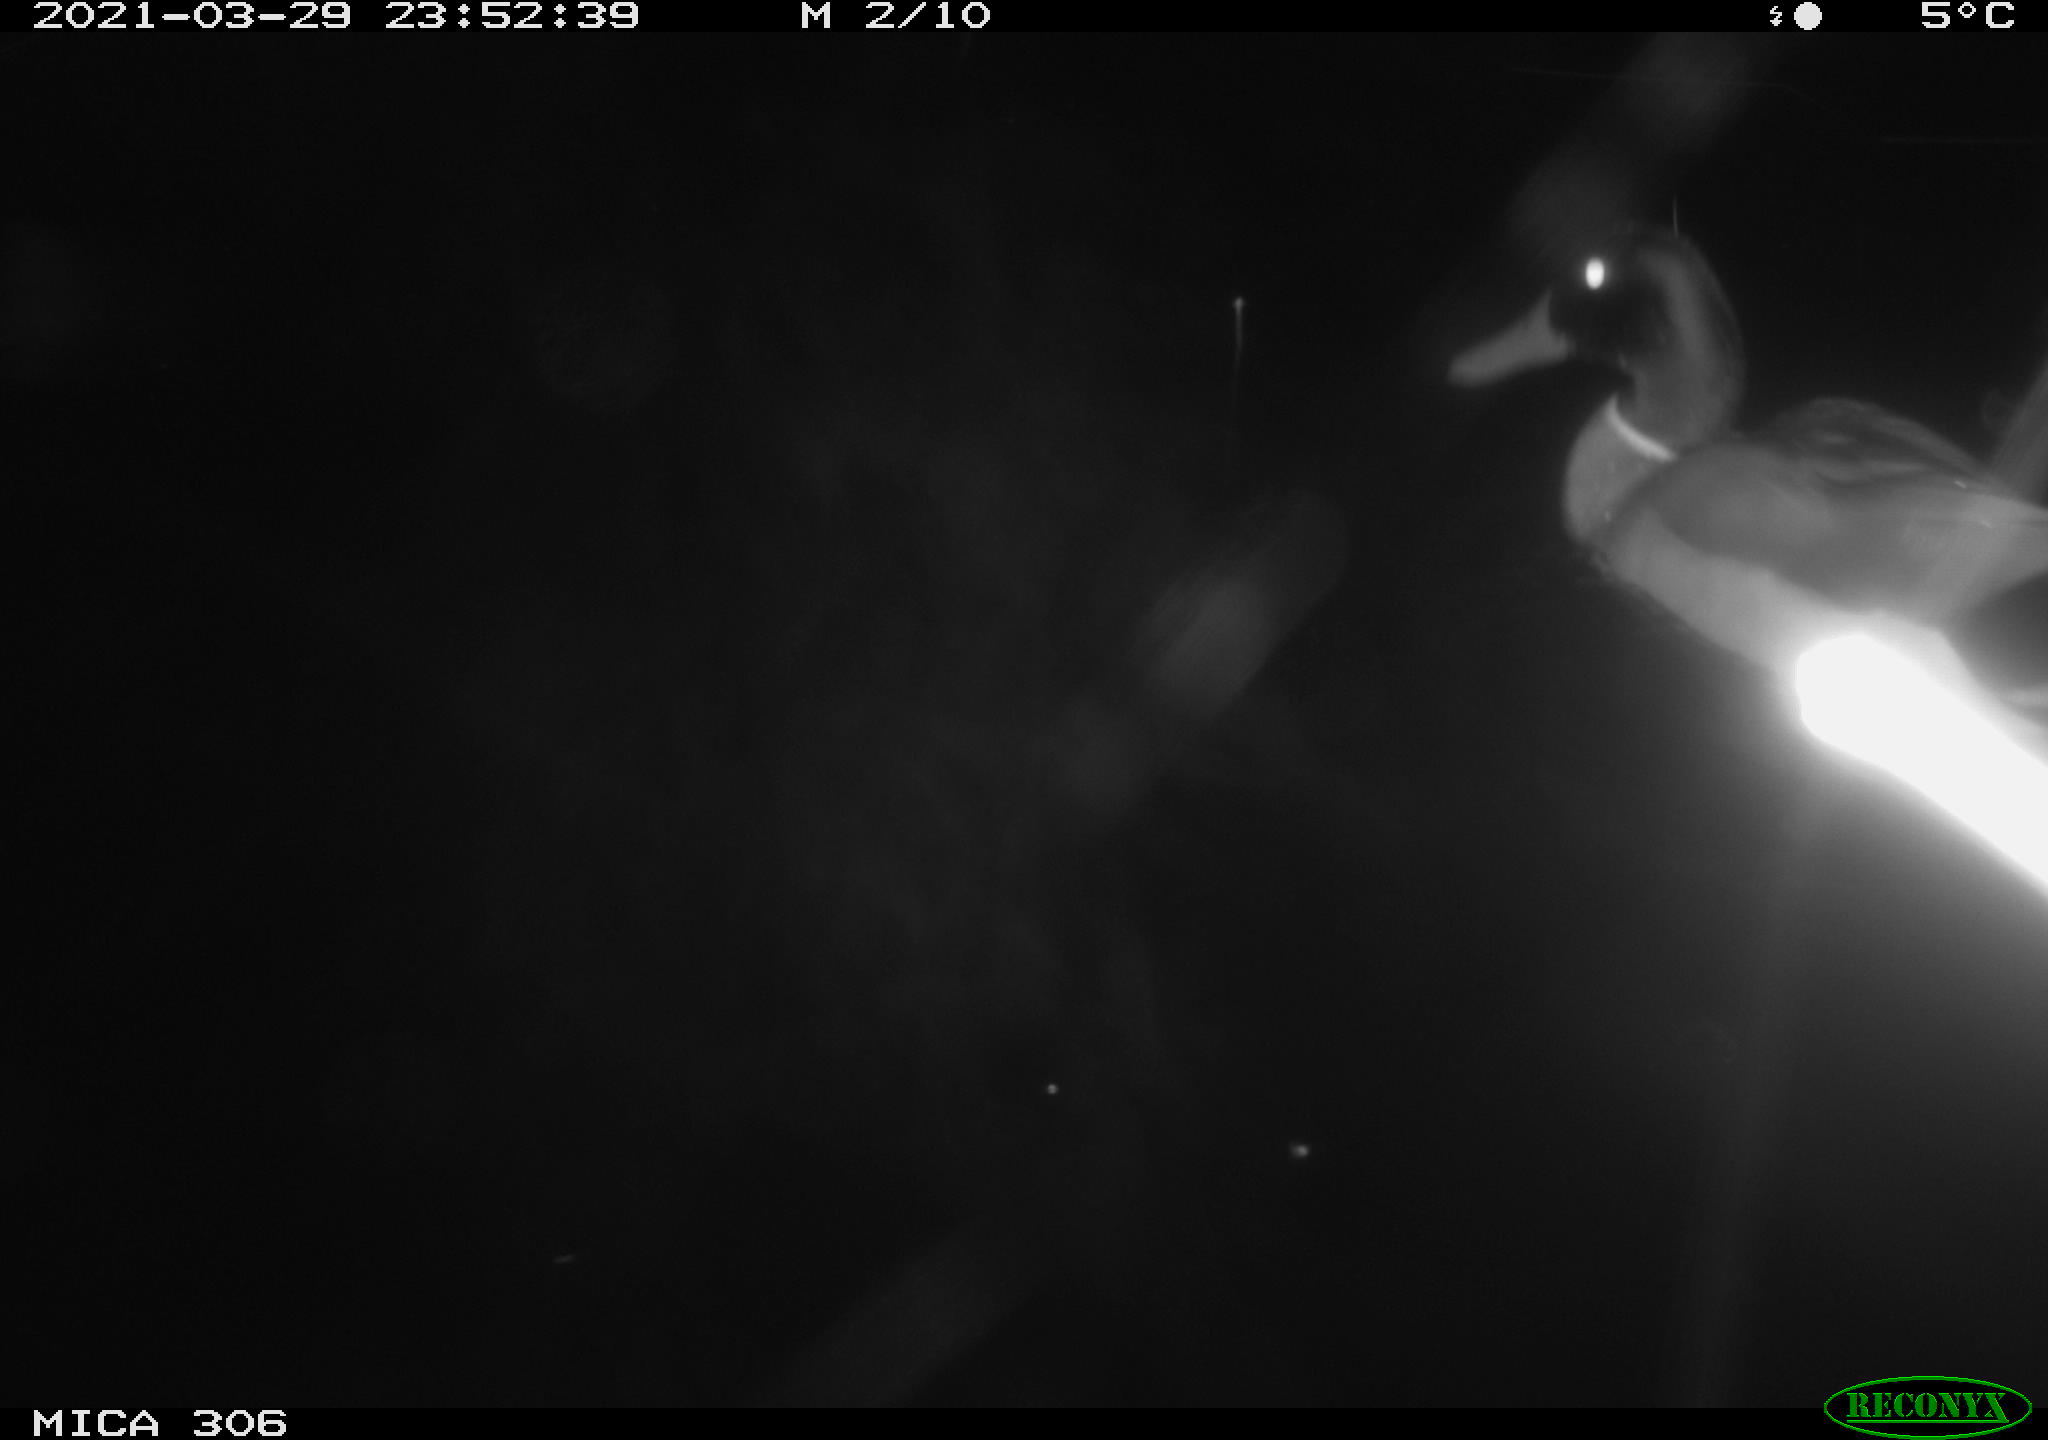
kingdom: Animalia
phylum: Chordata
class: Aves
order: Anseriformes
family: Anatidae
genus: Anas
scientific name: Anas platyrhynchos
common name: Mallard
